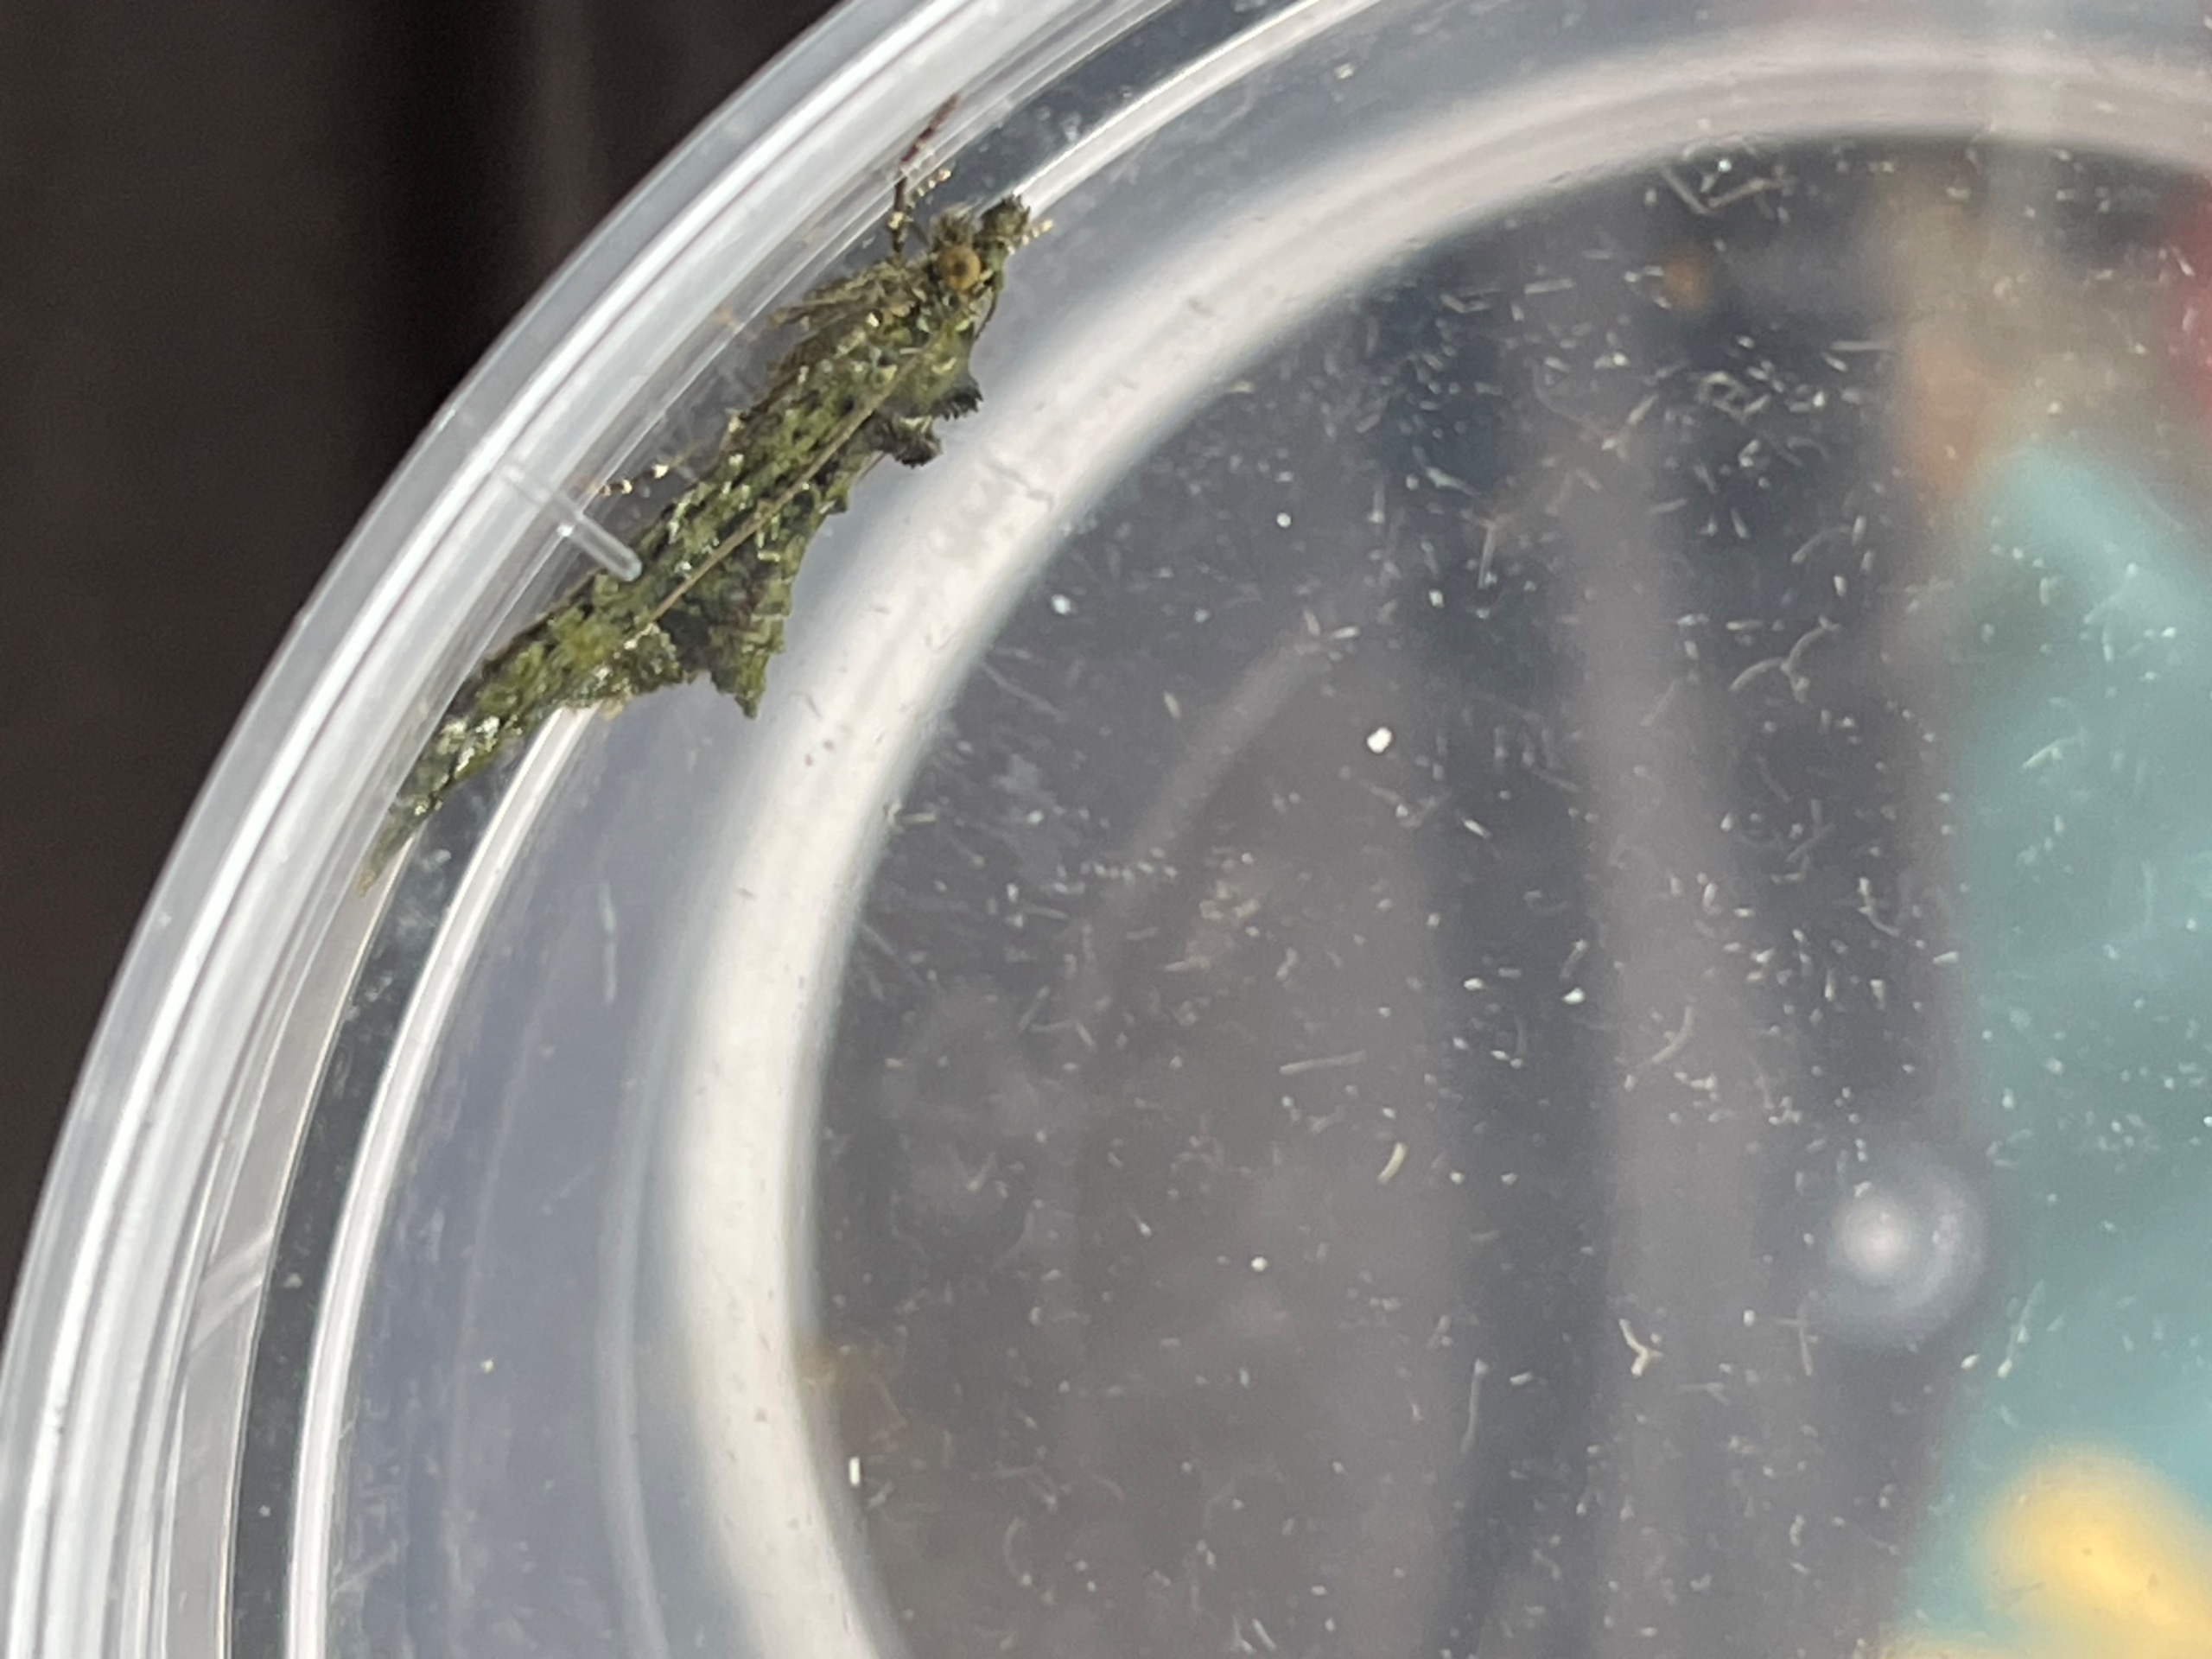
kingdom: Animalia
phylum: Arthropoda
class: Insecta
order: Lepidoptera
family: Geometridae
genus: Chloroclysta
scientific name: Chloroclysta siterata
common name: Brungrøn bladmåler
